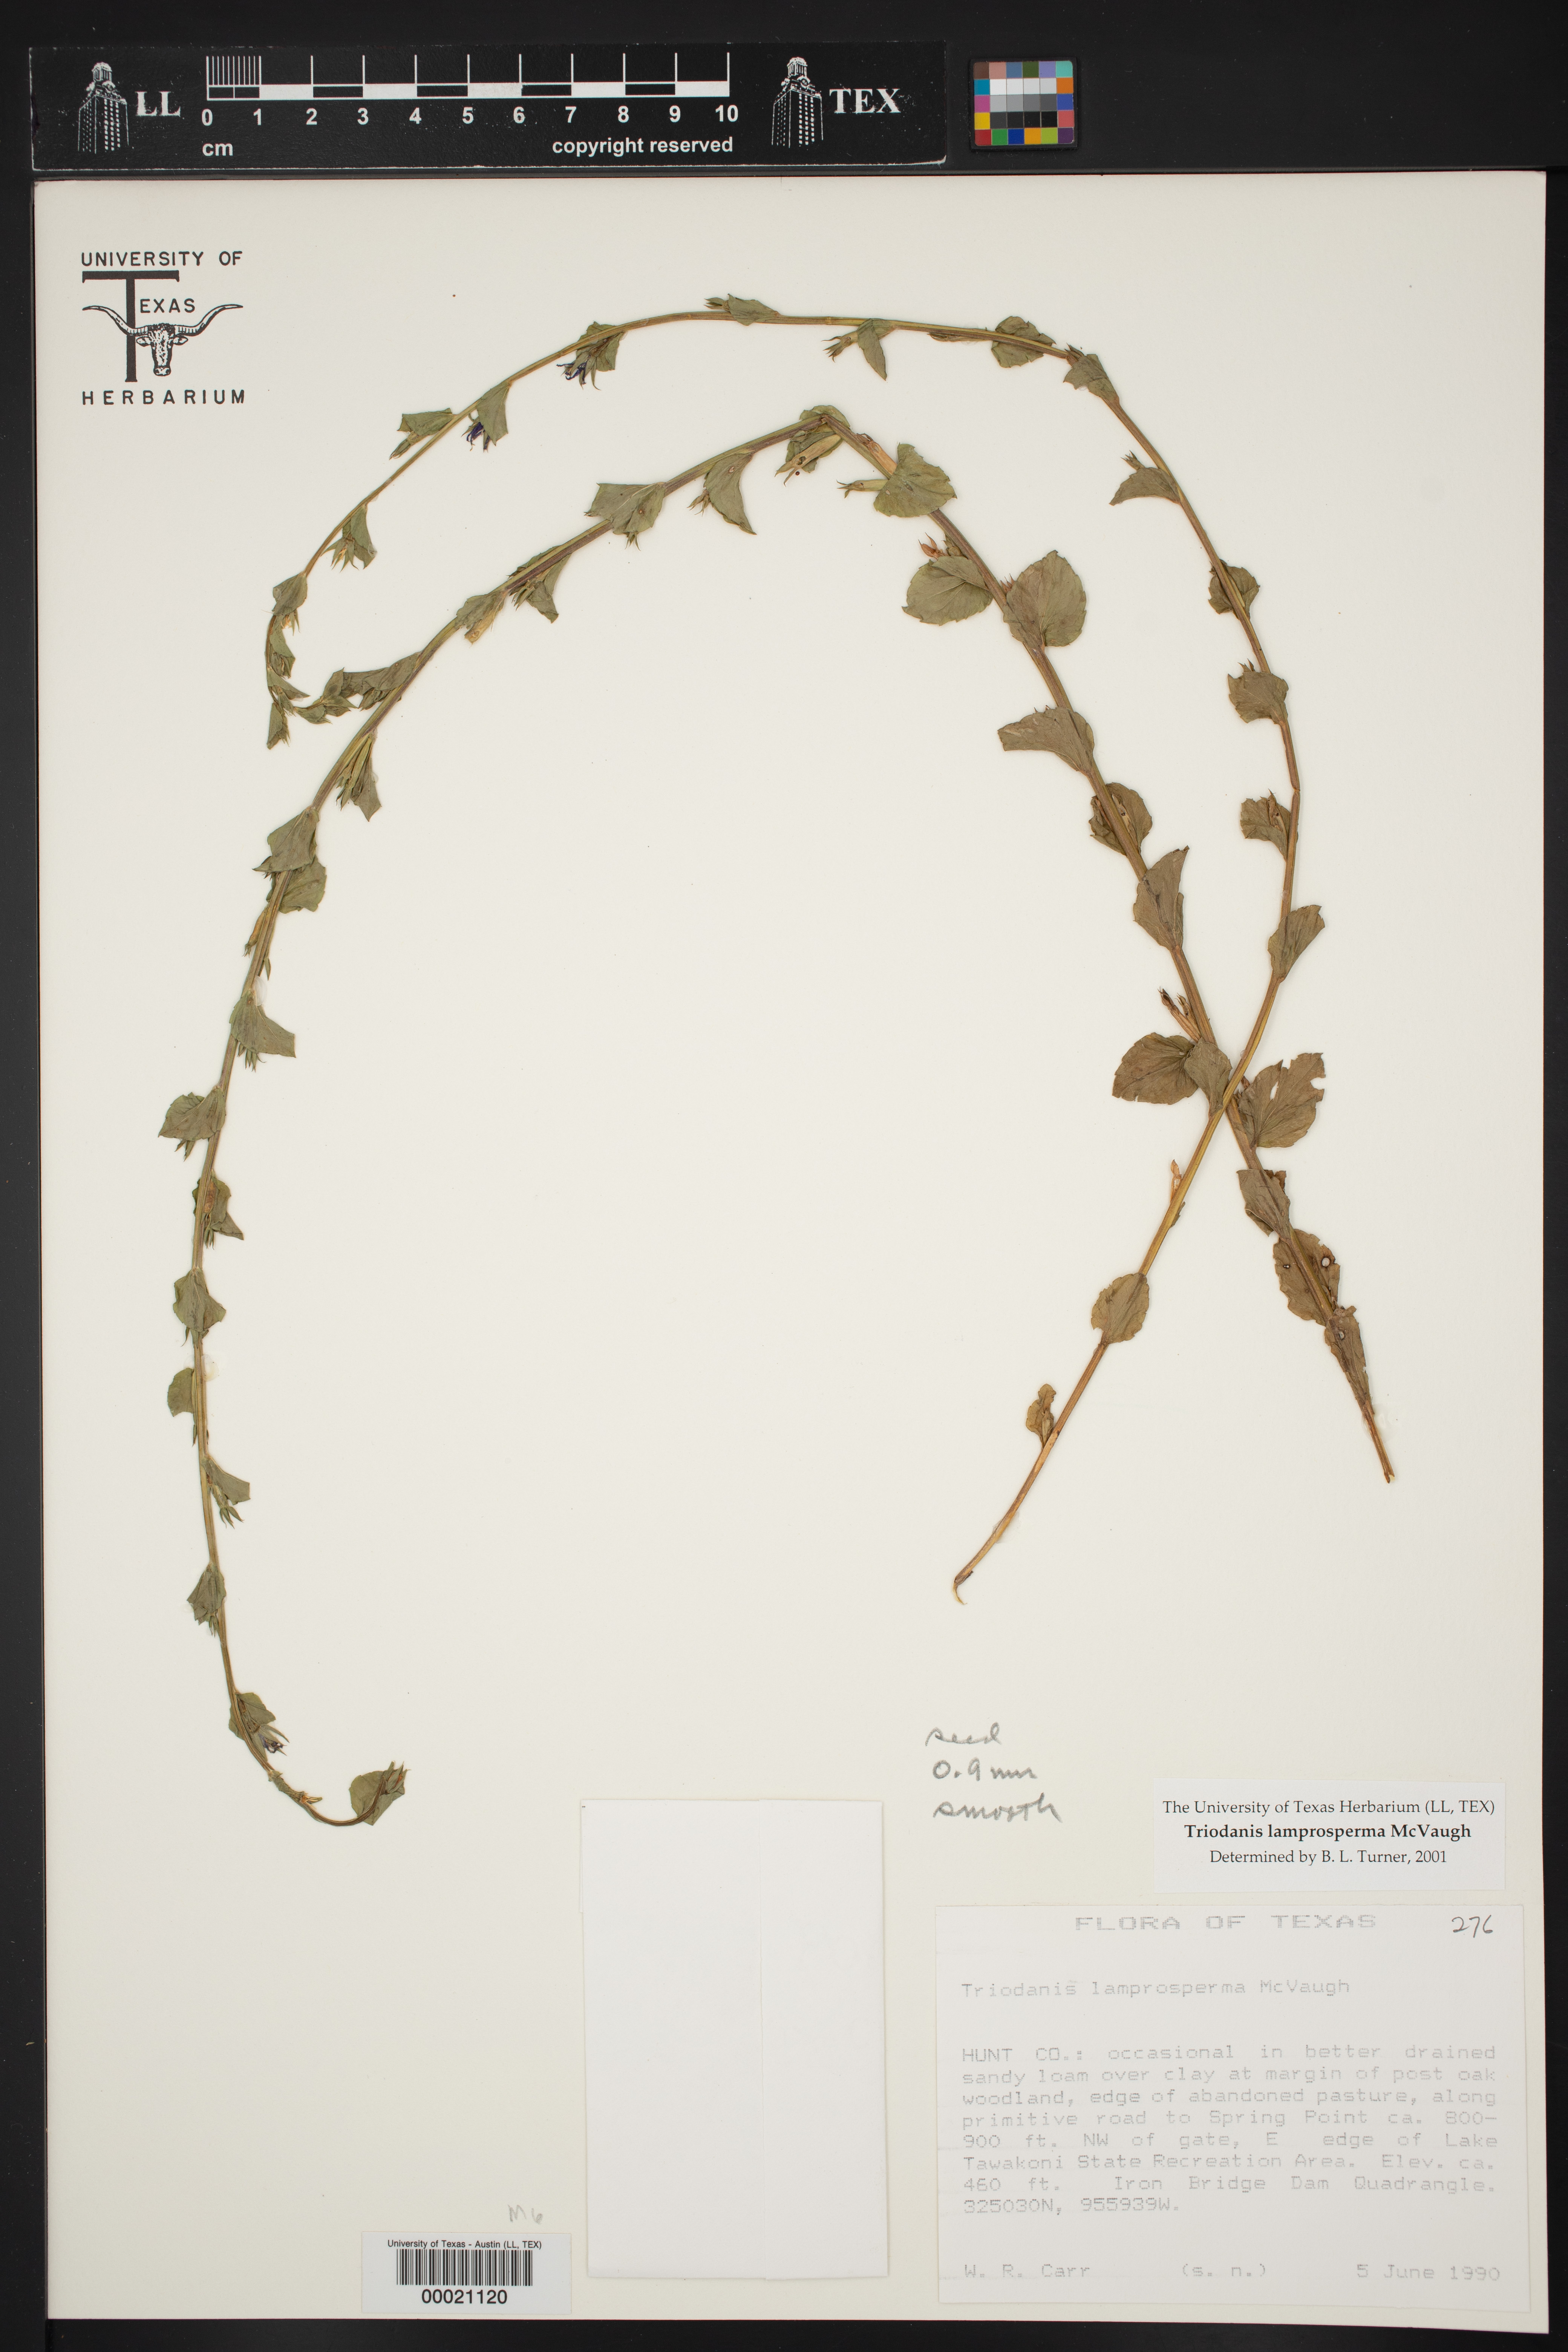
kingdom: Plantae
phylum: Tracheophyta
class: Magnoliopsida
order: Asterales
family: Campanulaceae
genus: Triodanis
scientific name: Triodanis lamprosperma
